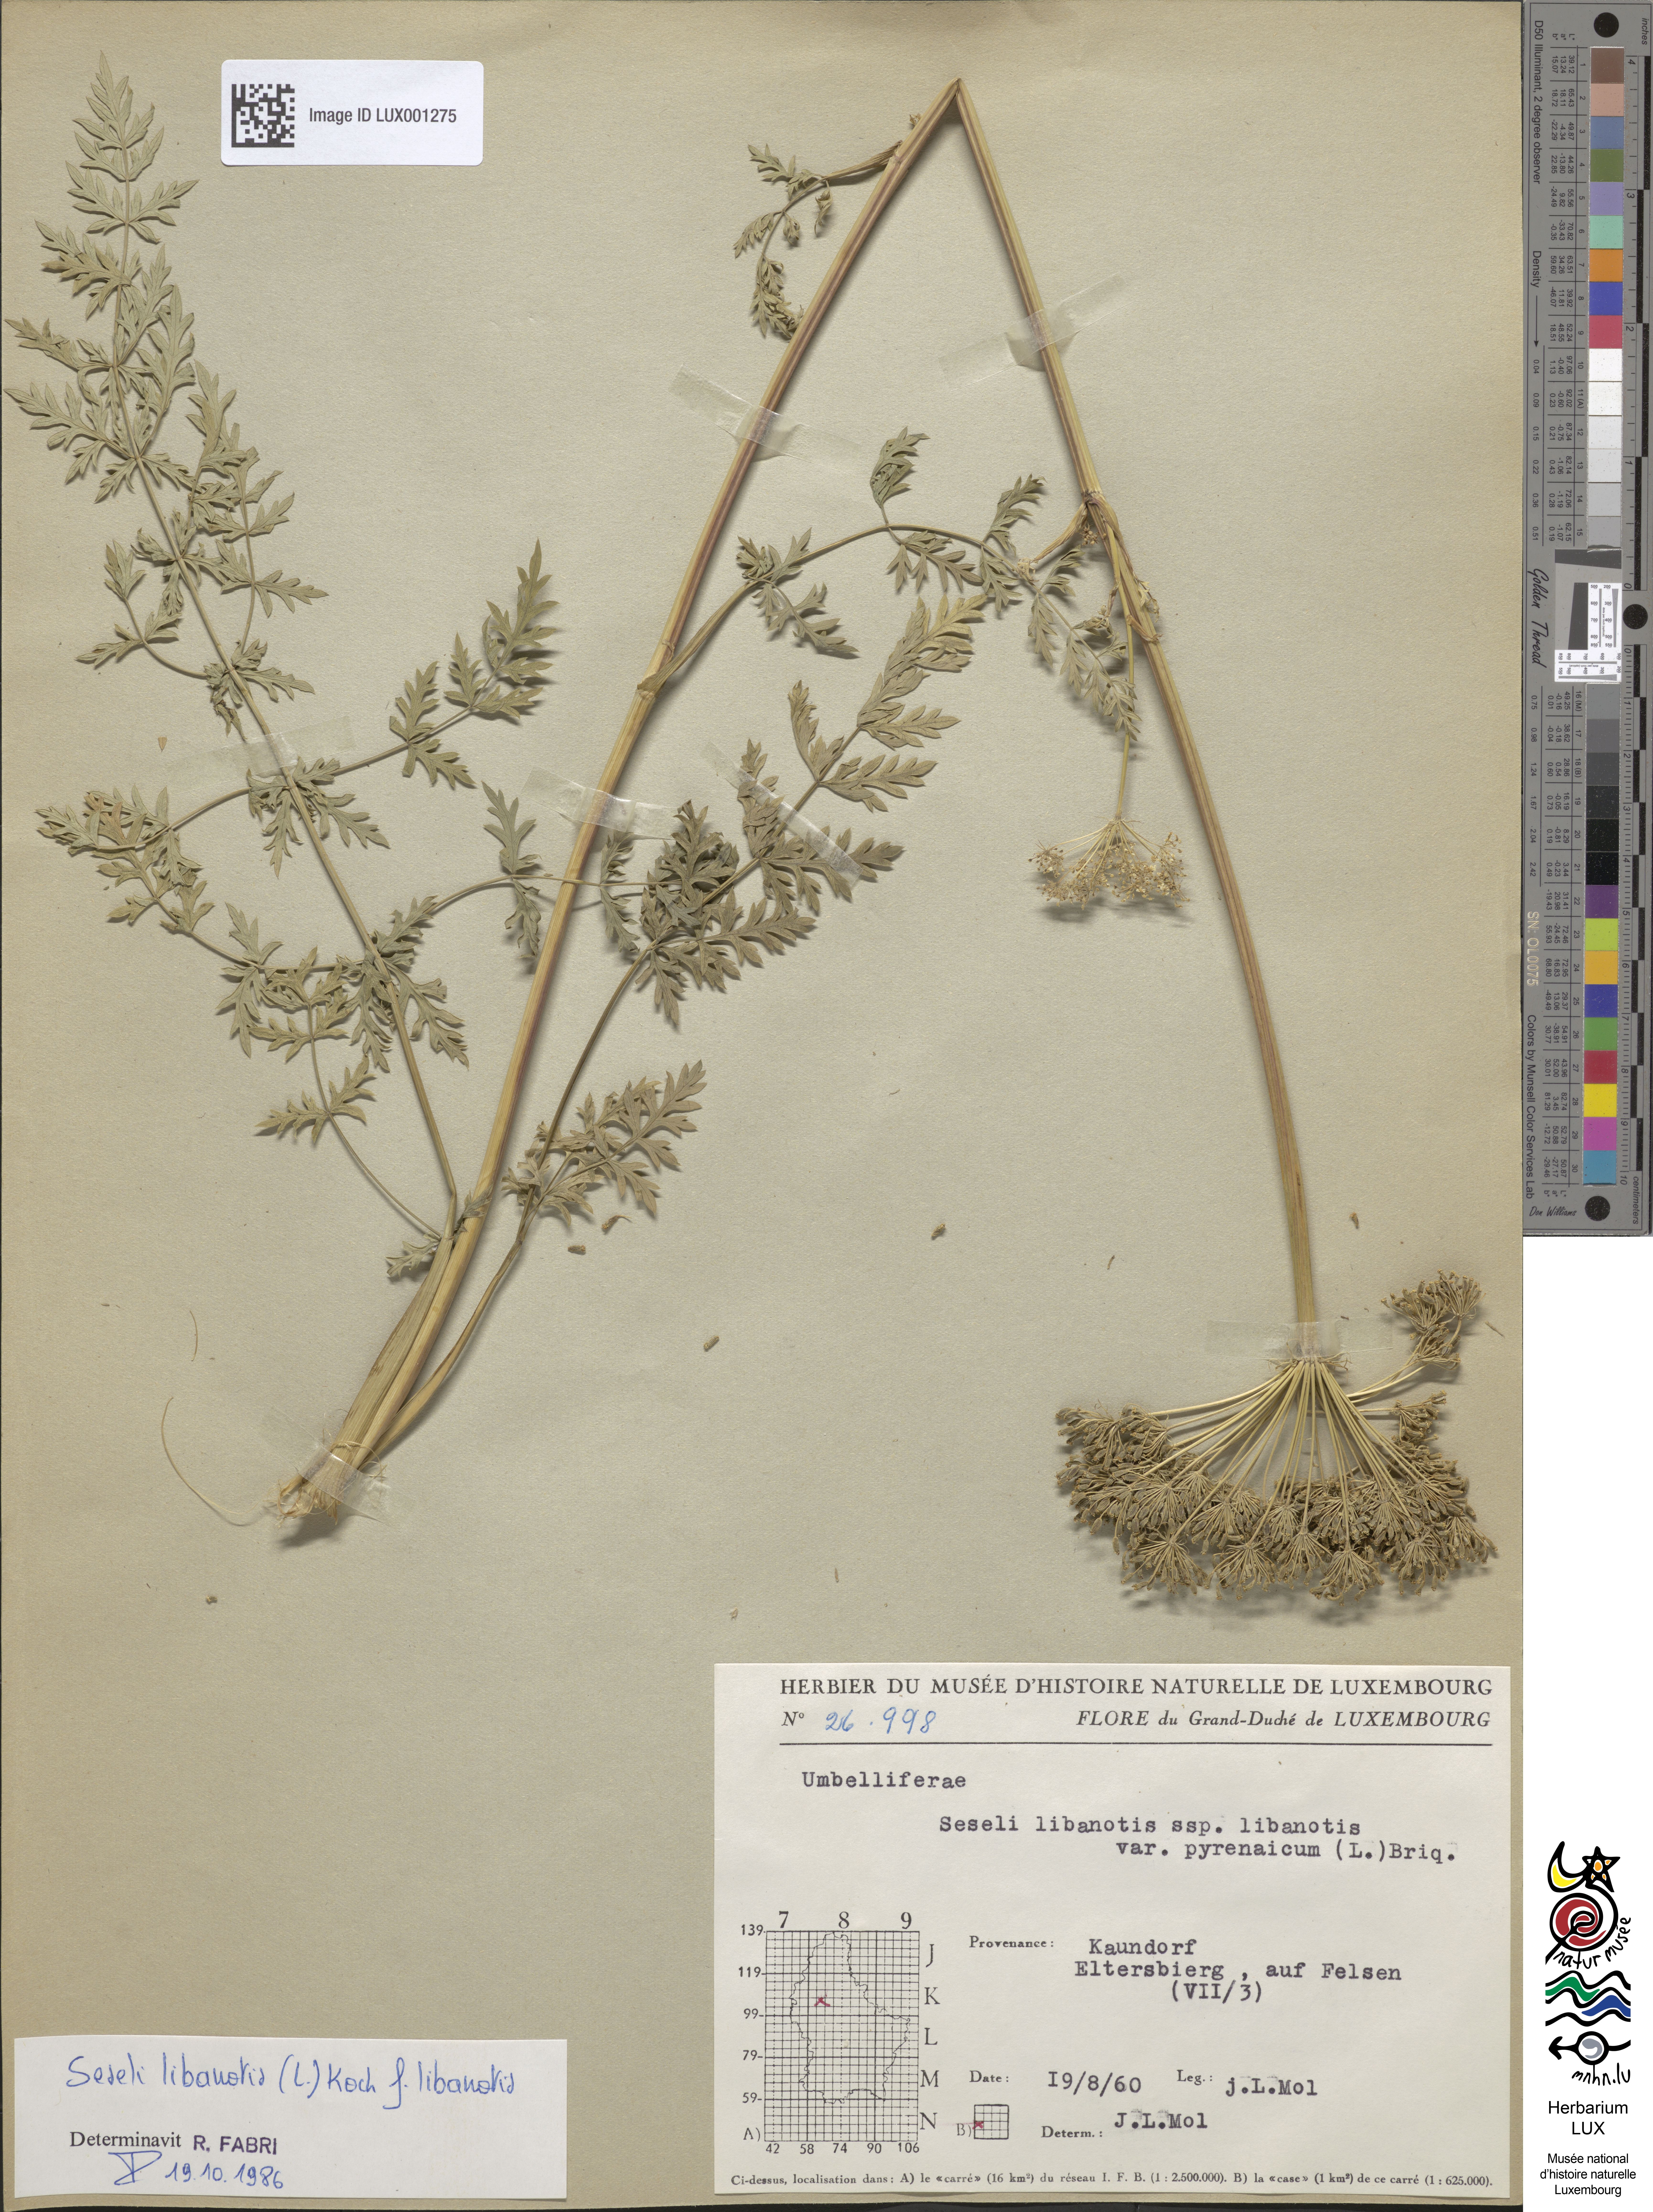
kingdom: Plantae
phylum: Tracheophyta
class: Magnoliopsida
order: Apiales
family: Apiaceae
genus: Seseli
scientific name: Seseli libanotis
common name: Mooncarrot
